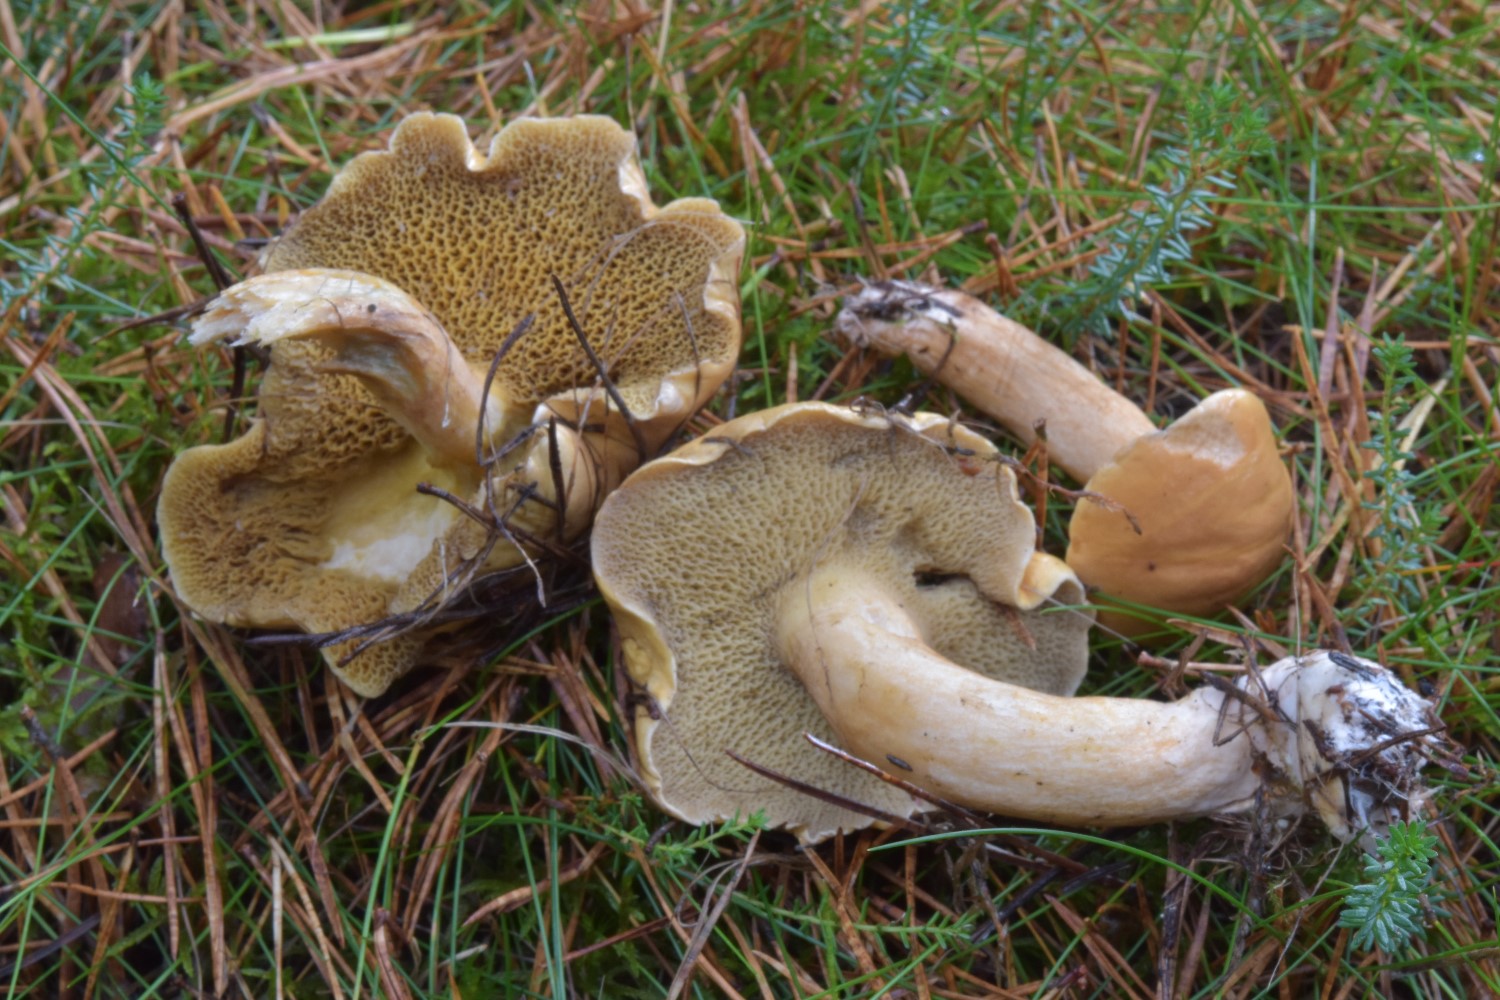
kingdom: Fungi
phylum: Basidiomycota
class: Agaricomycetes
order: Boletales
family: Suillaceae
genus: Suillus
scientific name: Suillus bovinus
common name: grovporet slimrørhat
